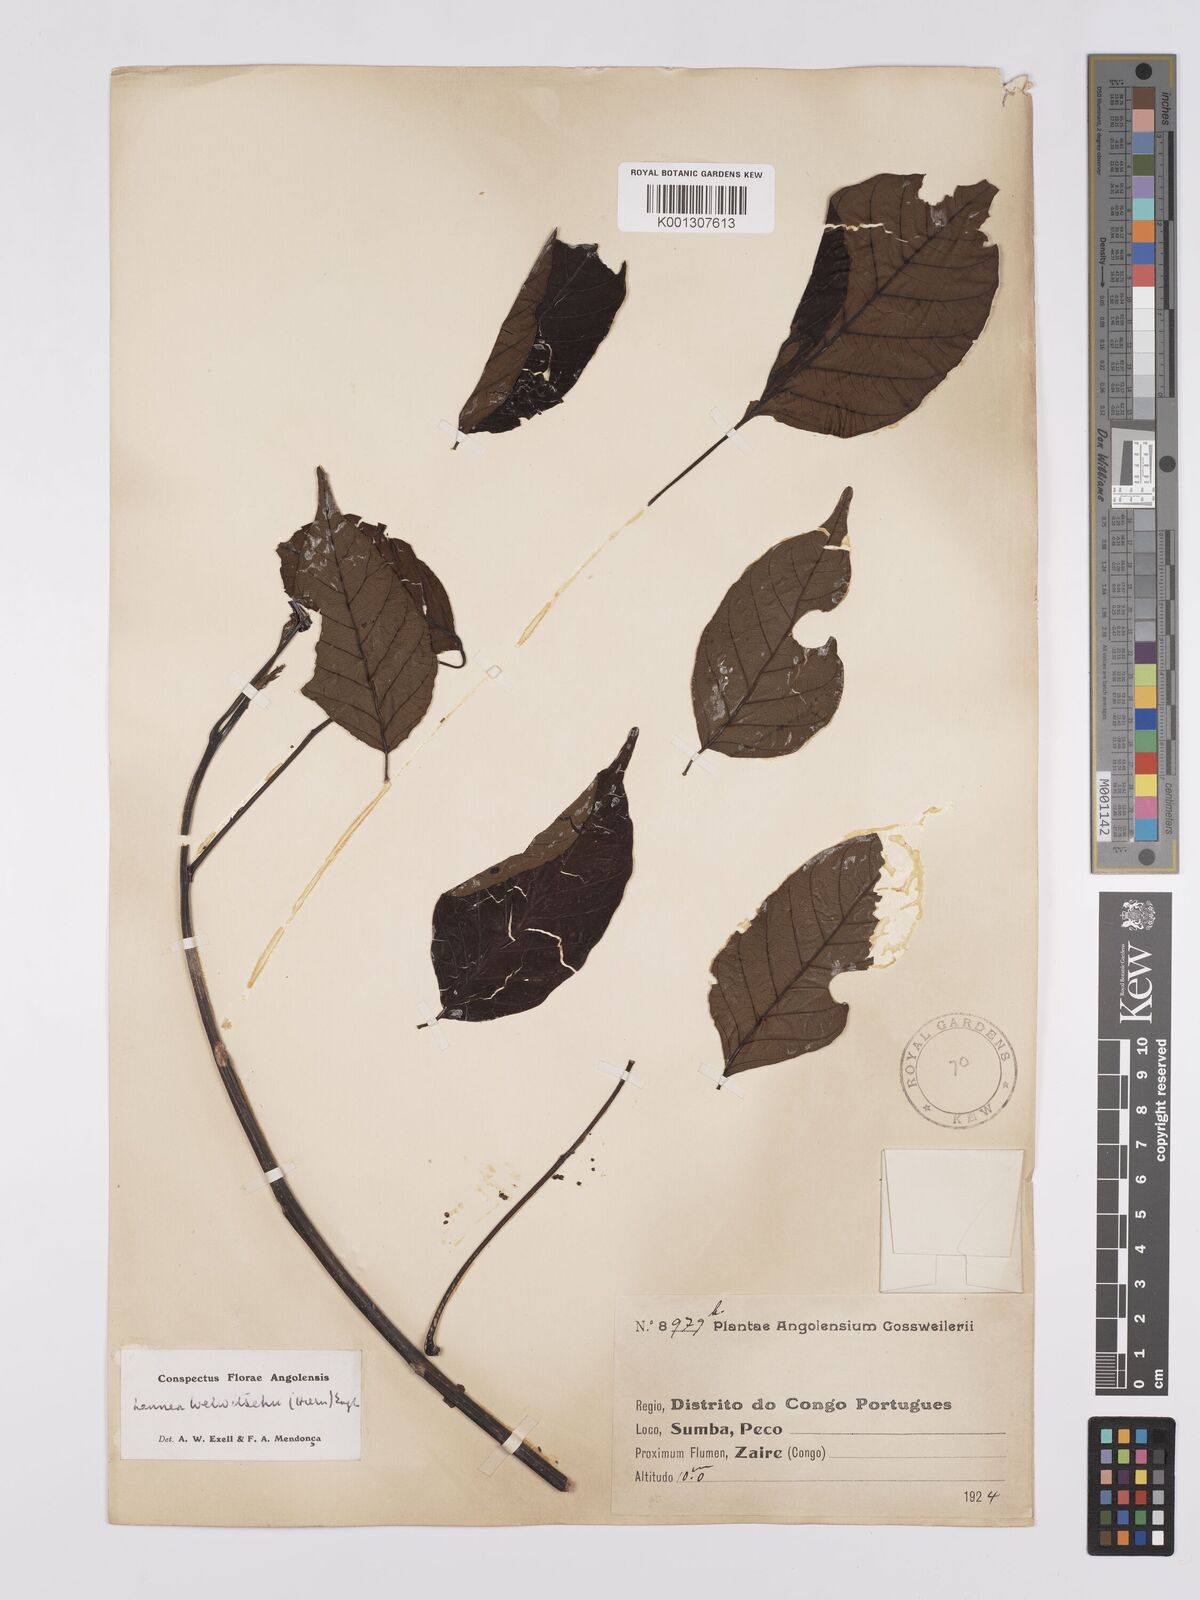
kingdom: Plantae
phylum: Tracheophyta
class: Magnoliopsida
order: Sapindales
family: Anacardiaceae
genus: Lannea
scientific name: Lannea welwitschii
